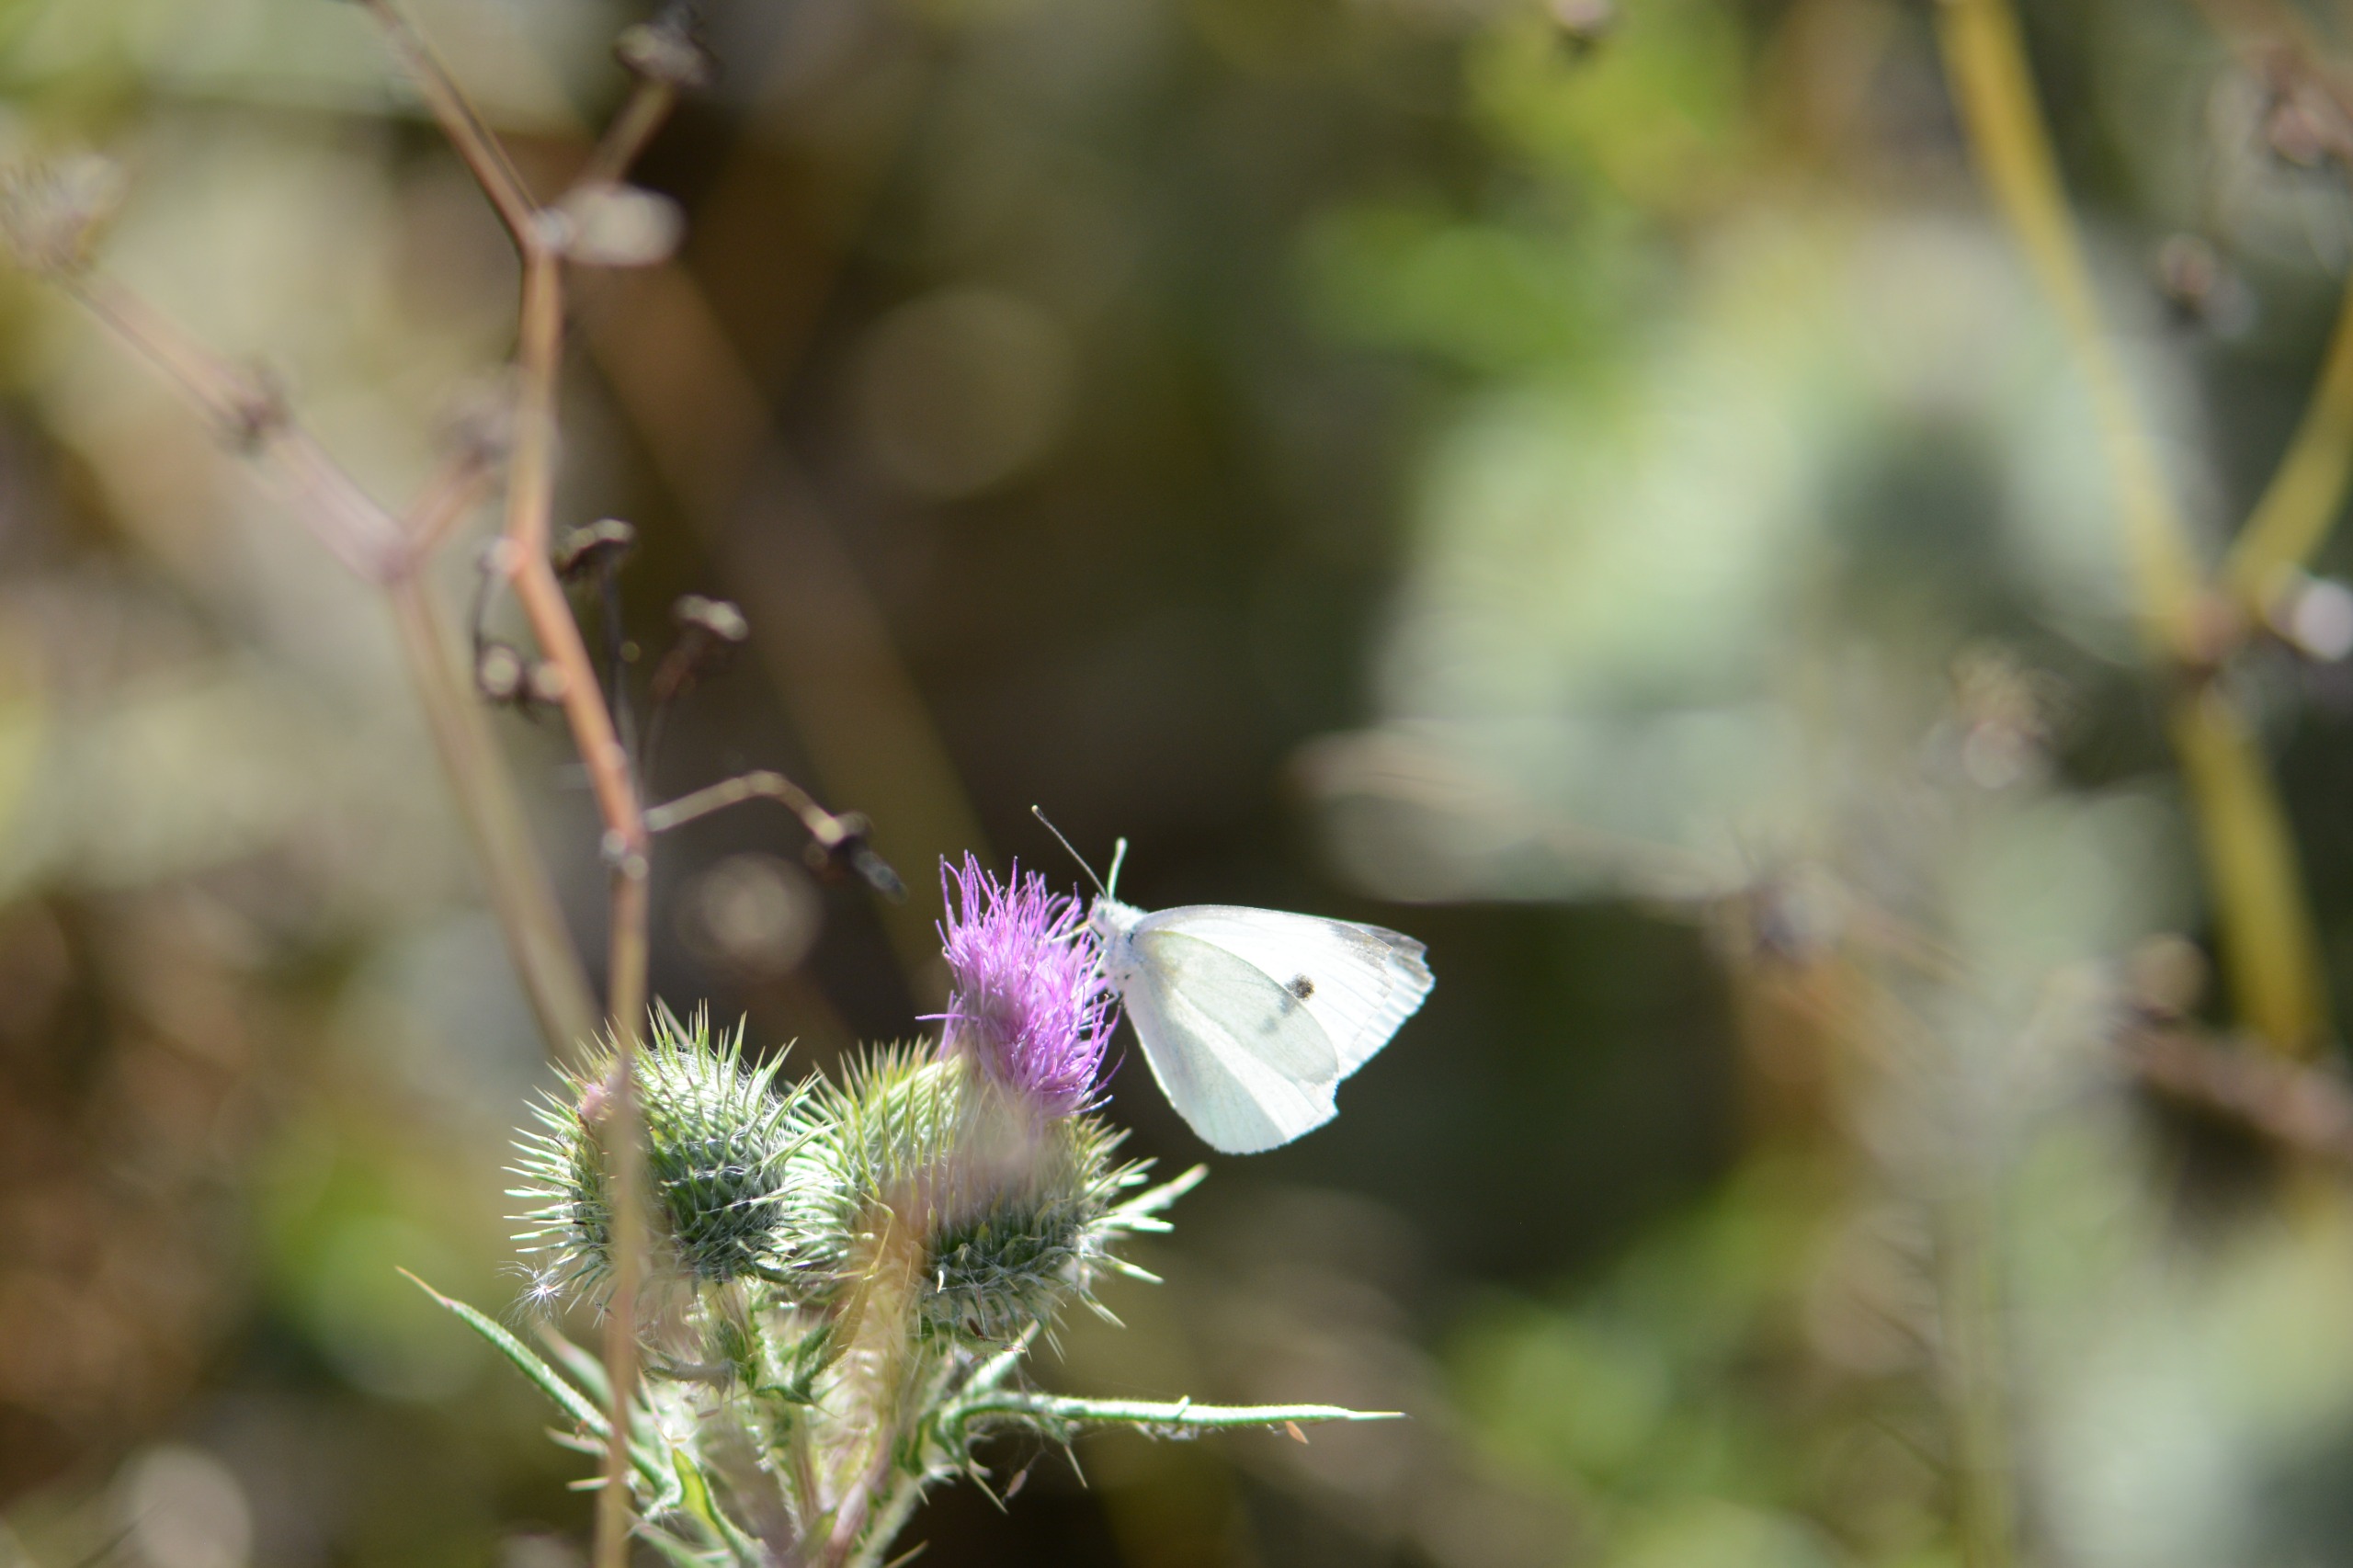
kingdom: Animalia
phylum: Arthropoda
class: Insecta
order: Lepidoptera
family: Pieridae
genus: Pieris
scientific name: Pieris rapae
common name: Lille kålsommerfugl
